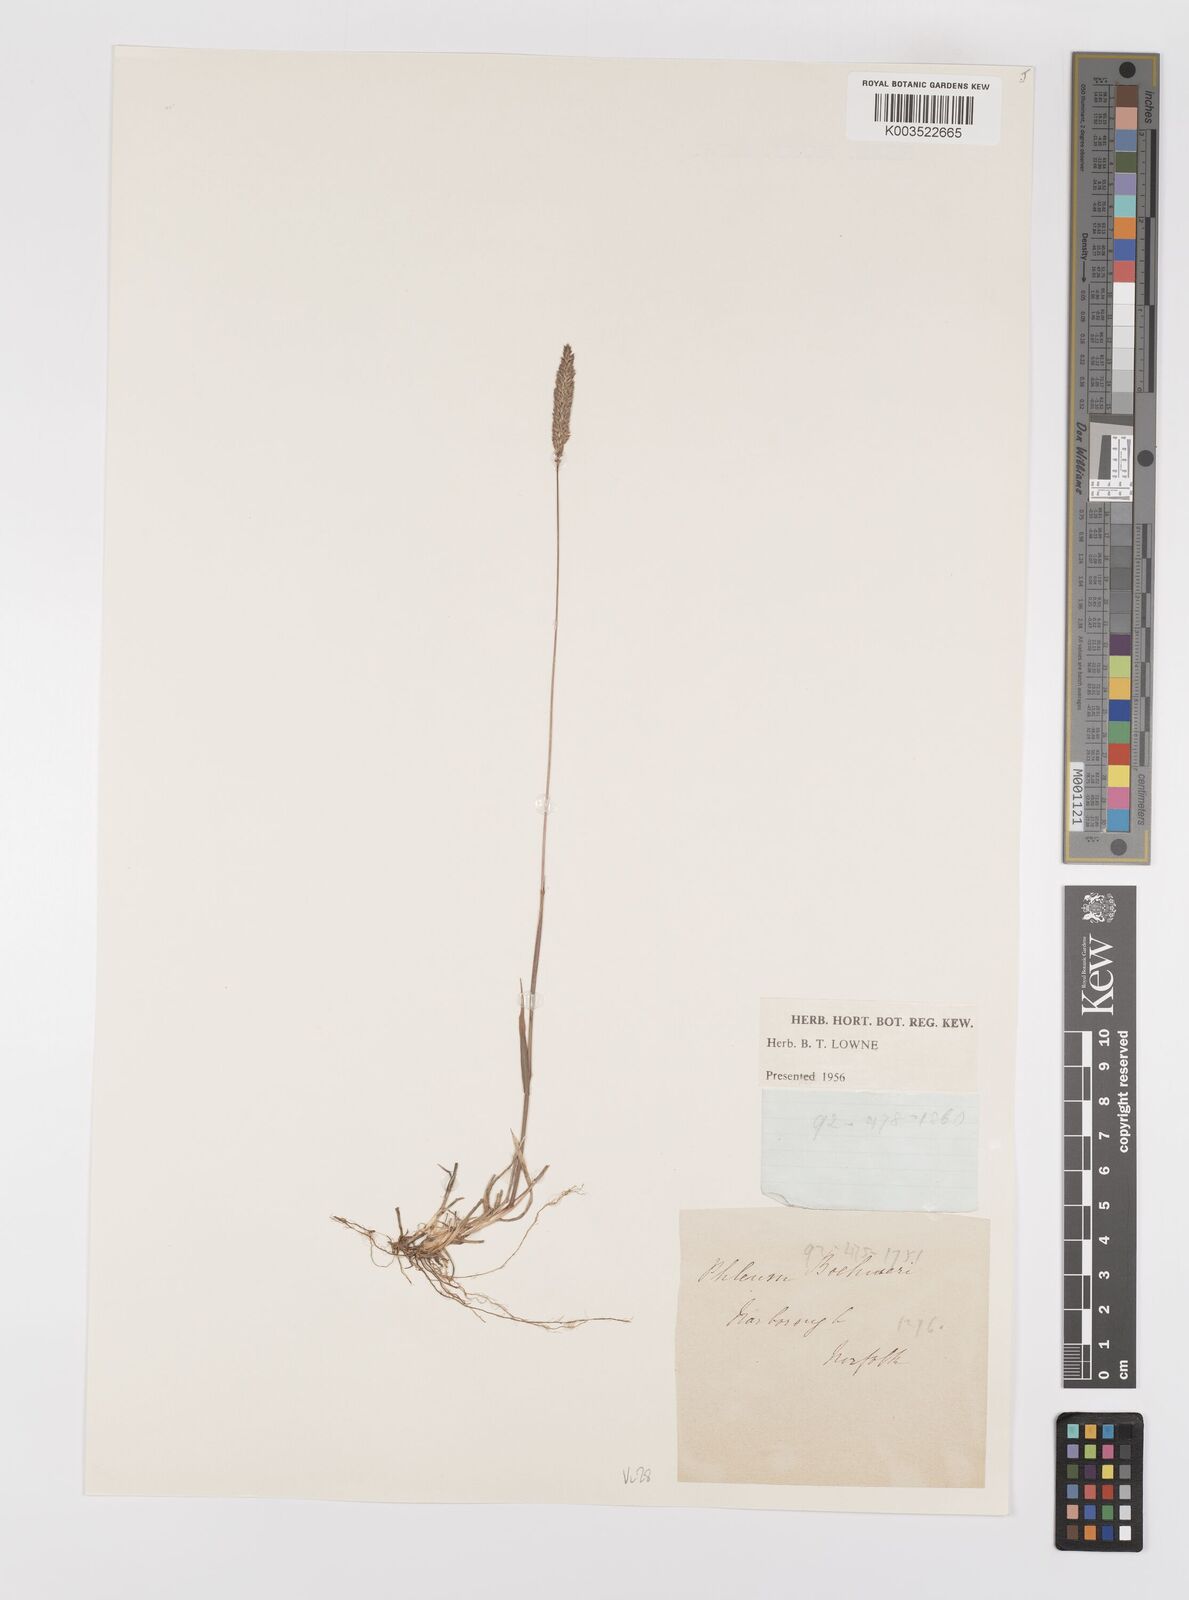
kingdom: Plantae
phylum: Tracheophyta
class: Liliopsida
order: Poales
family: Poaceae
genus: Phleum
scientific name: Phleum phleoides
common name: Purple-stem cat's-tail
